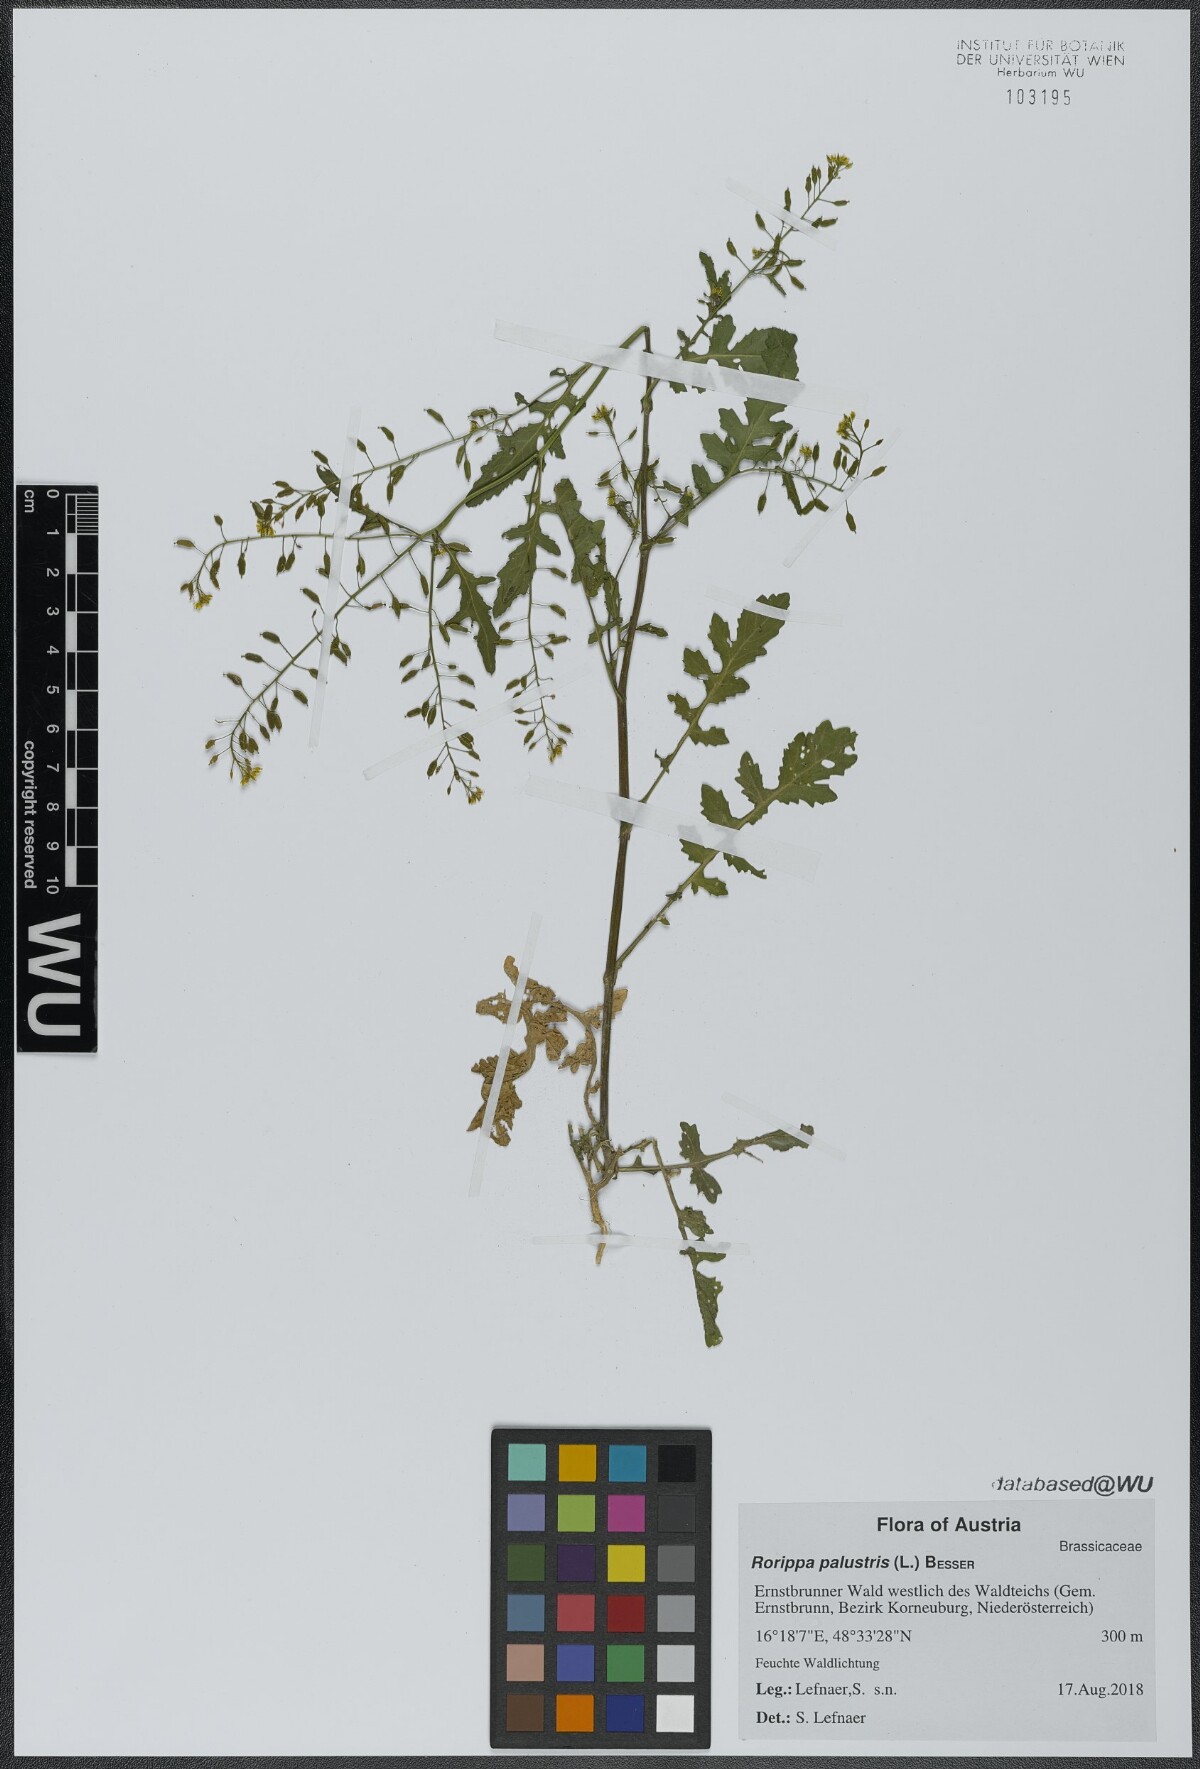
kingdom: Plantae
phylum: Tracheophyta
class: Magnoliopsida
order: Brassicales
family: Brassicaceae
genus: Rorippa
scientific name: Rorippa palustris
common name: Marsh yellow-cress
